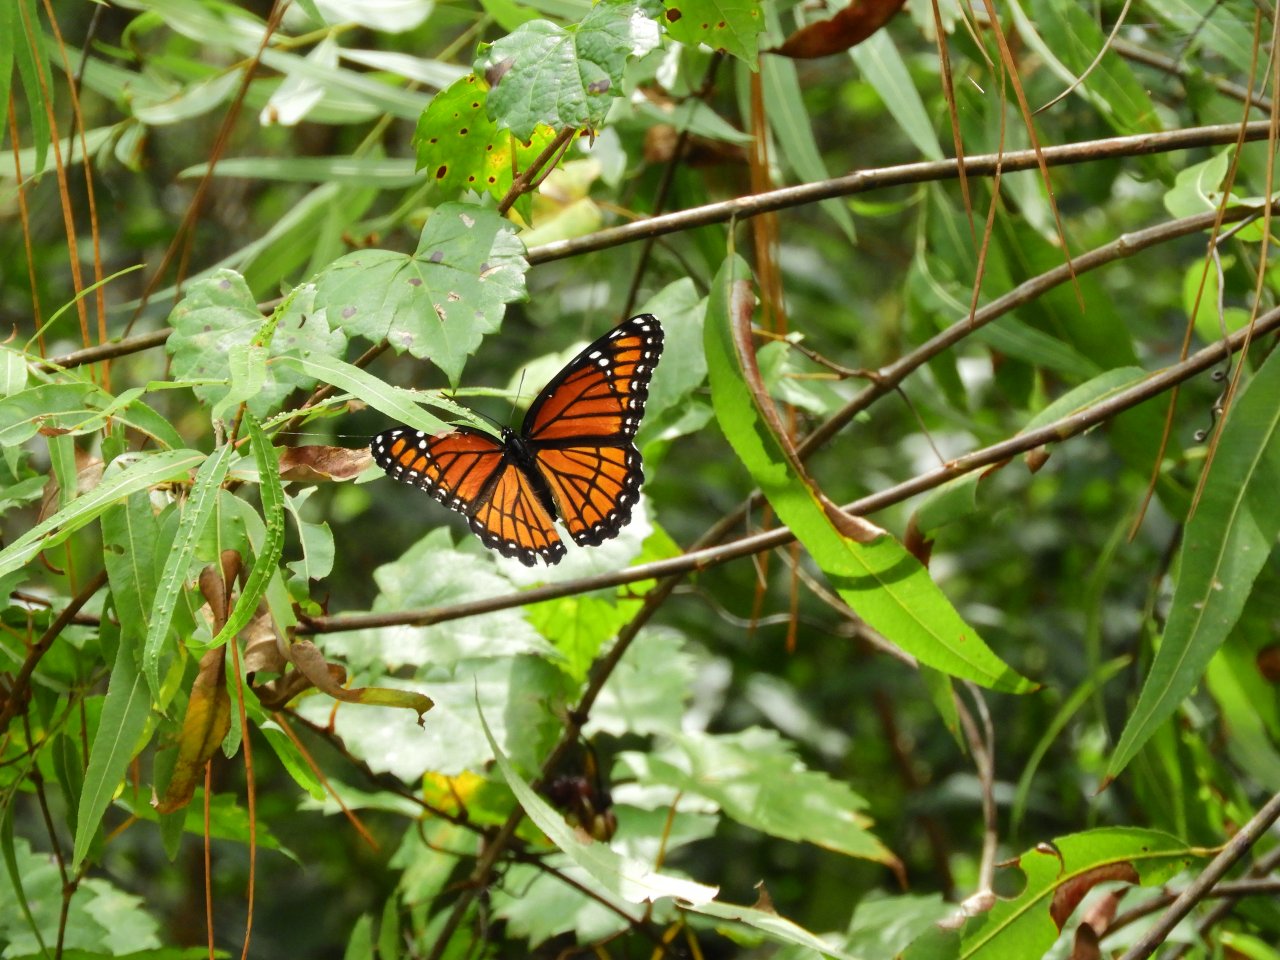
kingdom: Animalia
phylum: Arthropoda
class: Insecta
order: Lepidoptera
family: Nymphalidae
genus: Limenitis
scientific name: Limenitis archippus
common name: Viceroy
